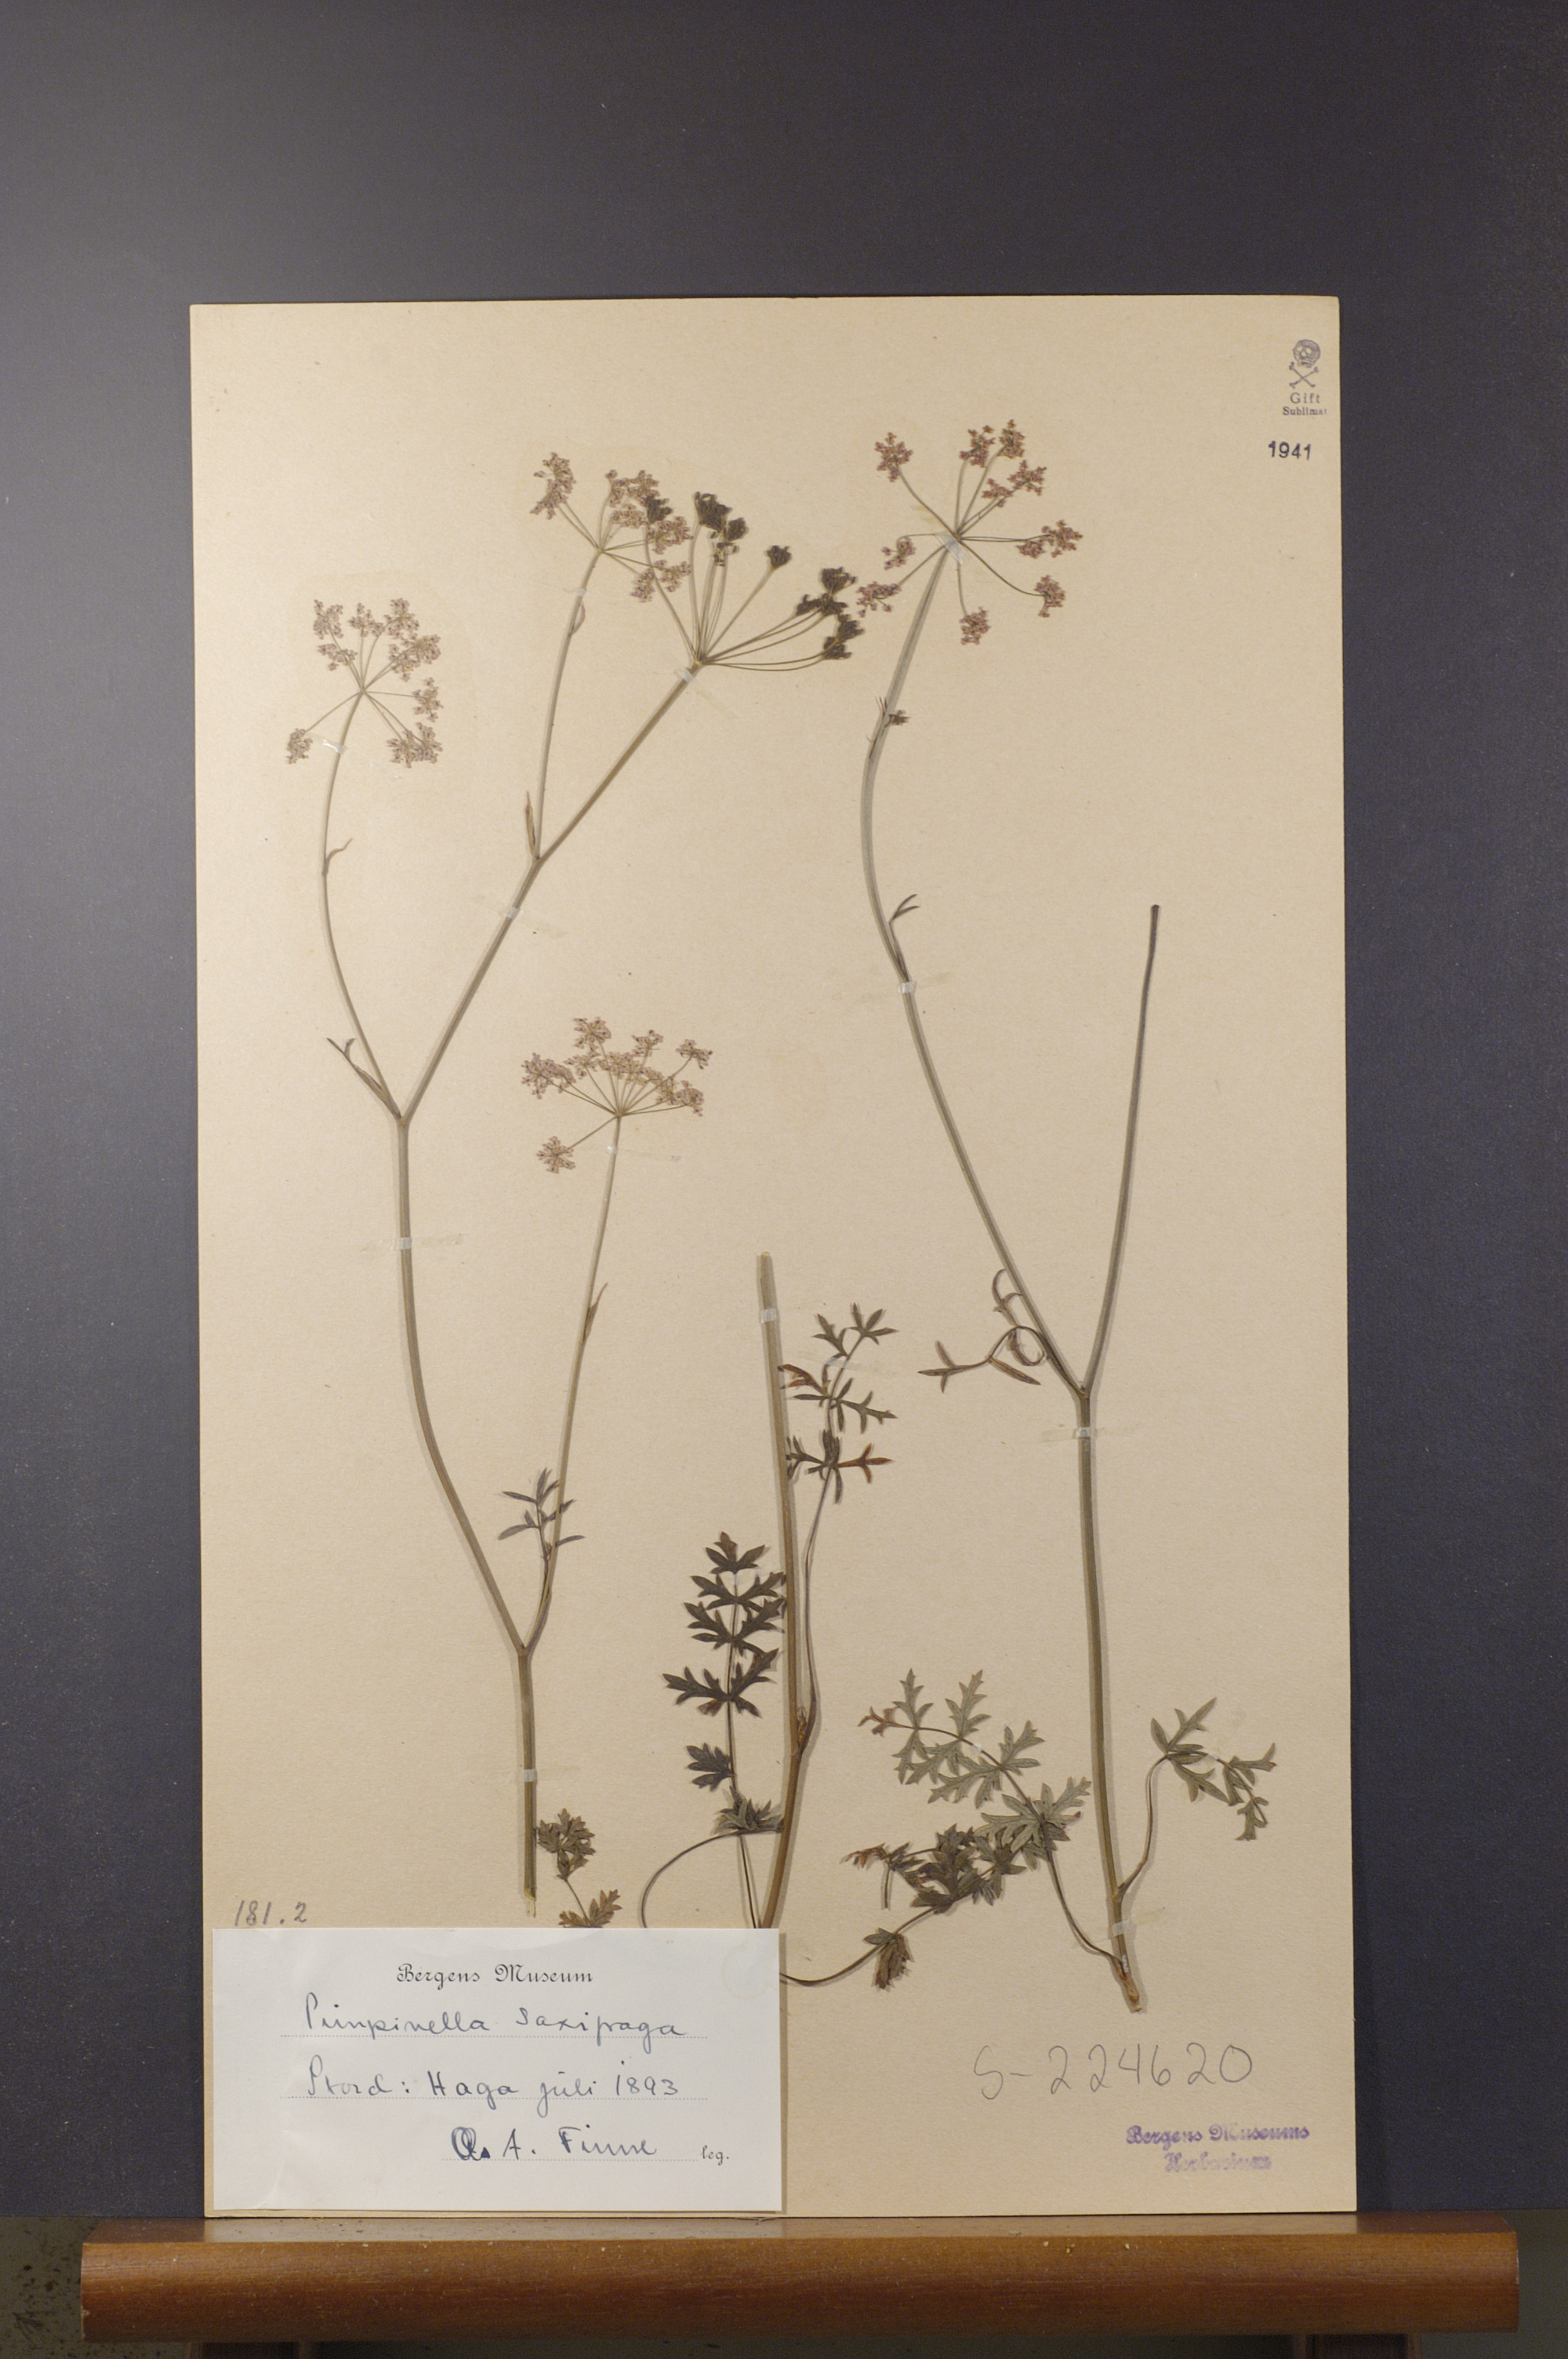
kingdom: Plantae
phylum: Tracheophyta
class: Magnoliopsida
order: Apiales
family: Apiaceae
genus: Pimpinella
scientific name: Pimpinella saxifraga
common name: Burnet-saxifrage
